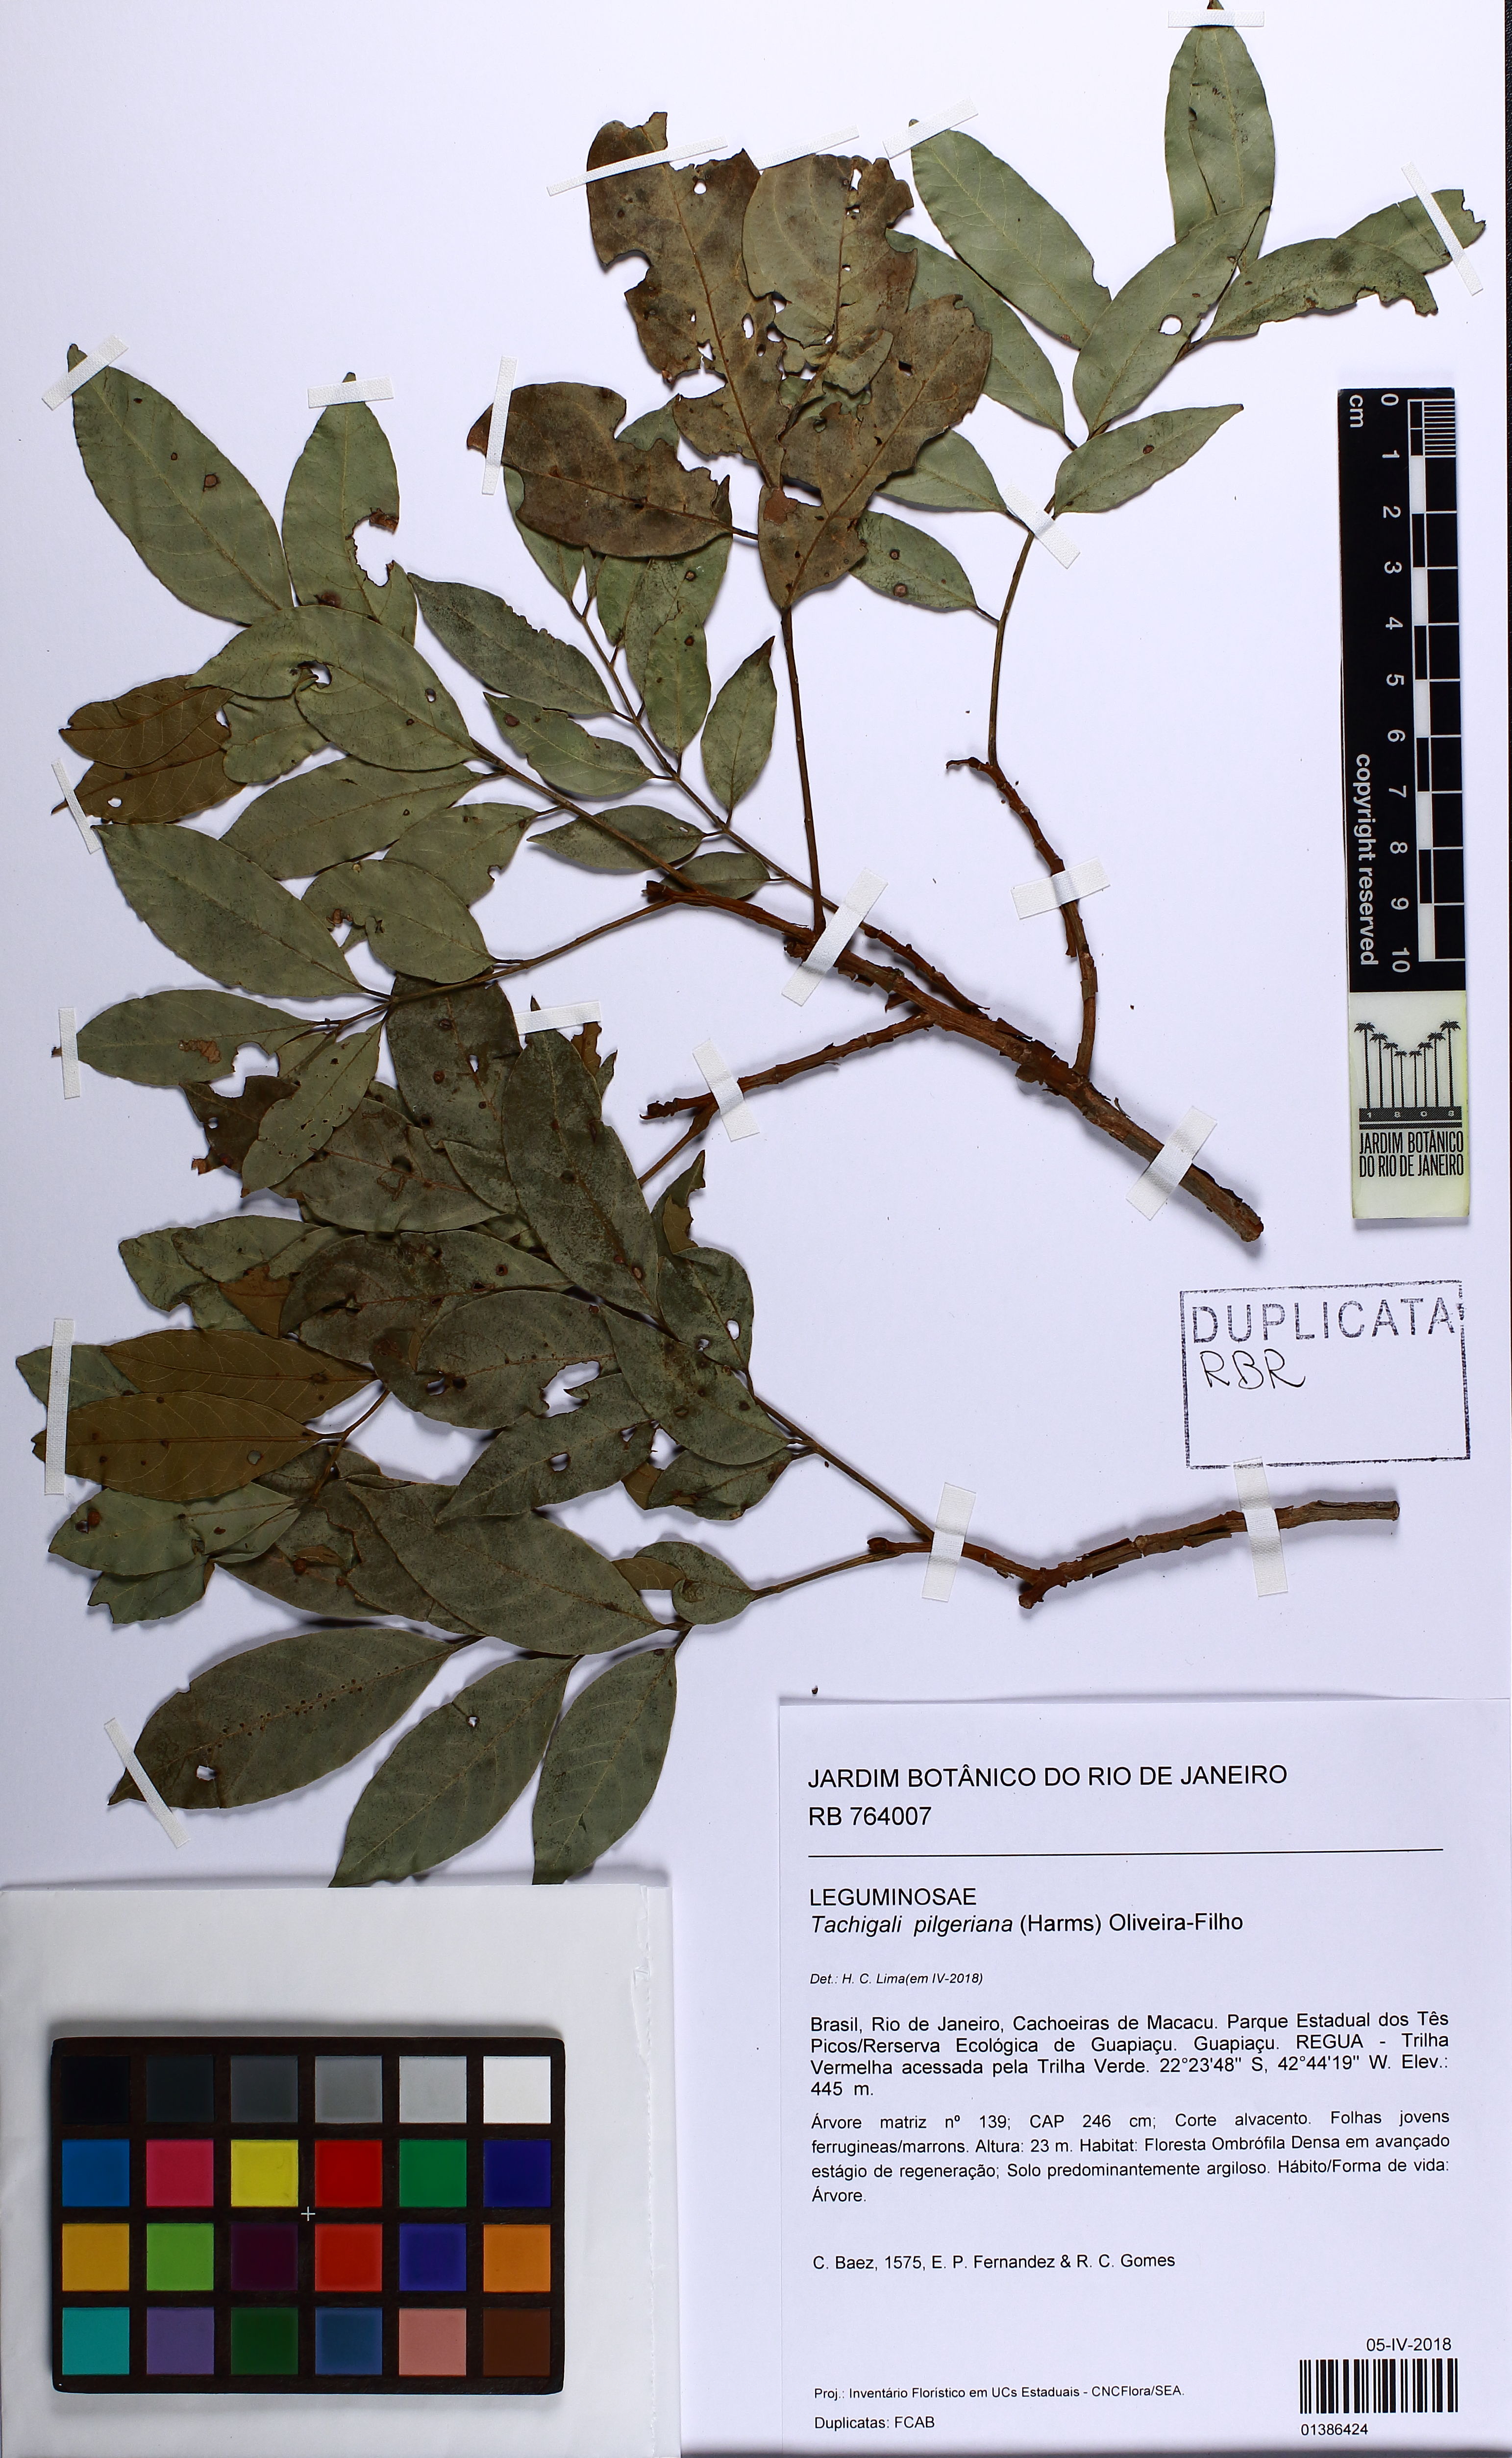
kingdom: Plantae
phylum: Tracheophyta
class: Magnoliopsida
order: Fabales
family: Fabaceae
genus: Tachigali
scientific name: Tachigali pilgeriana
